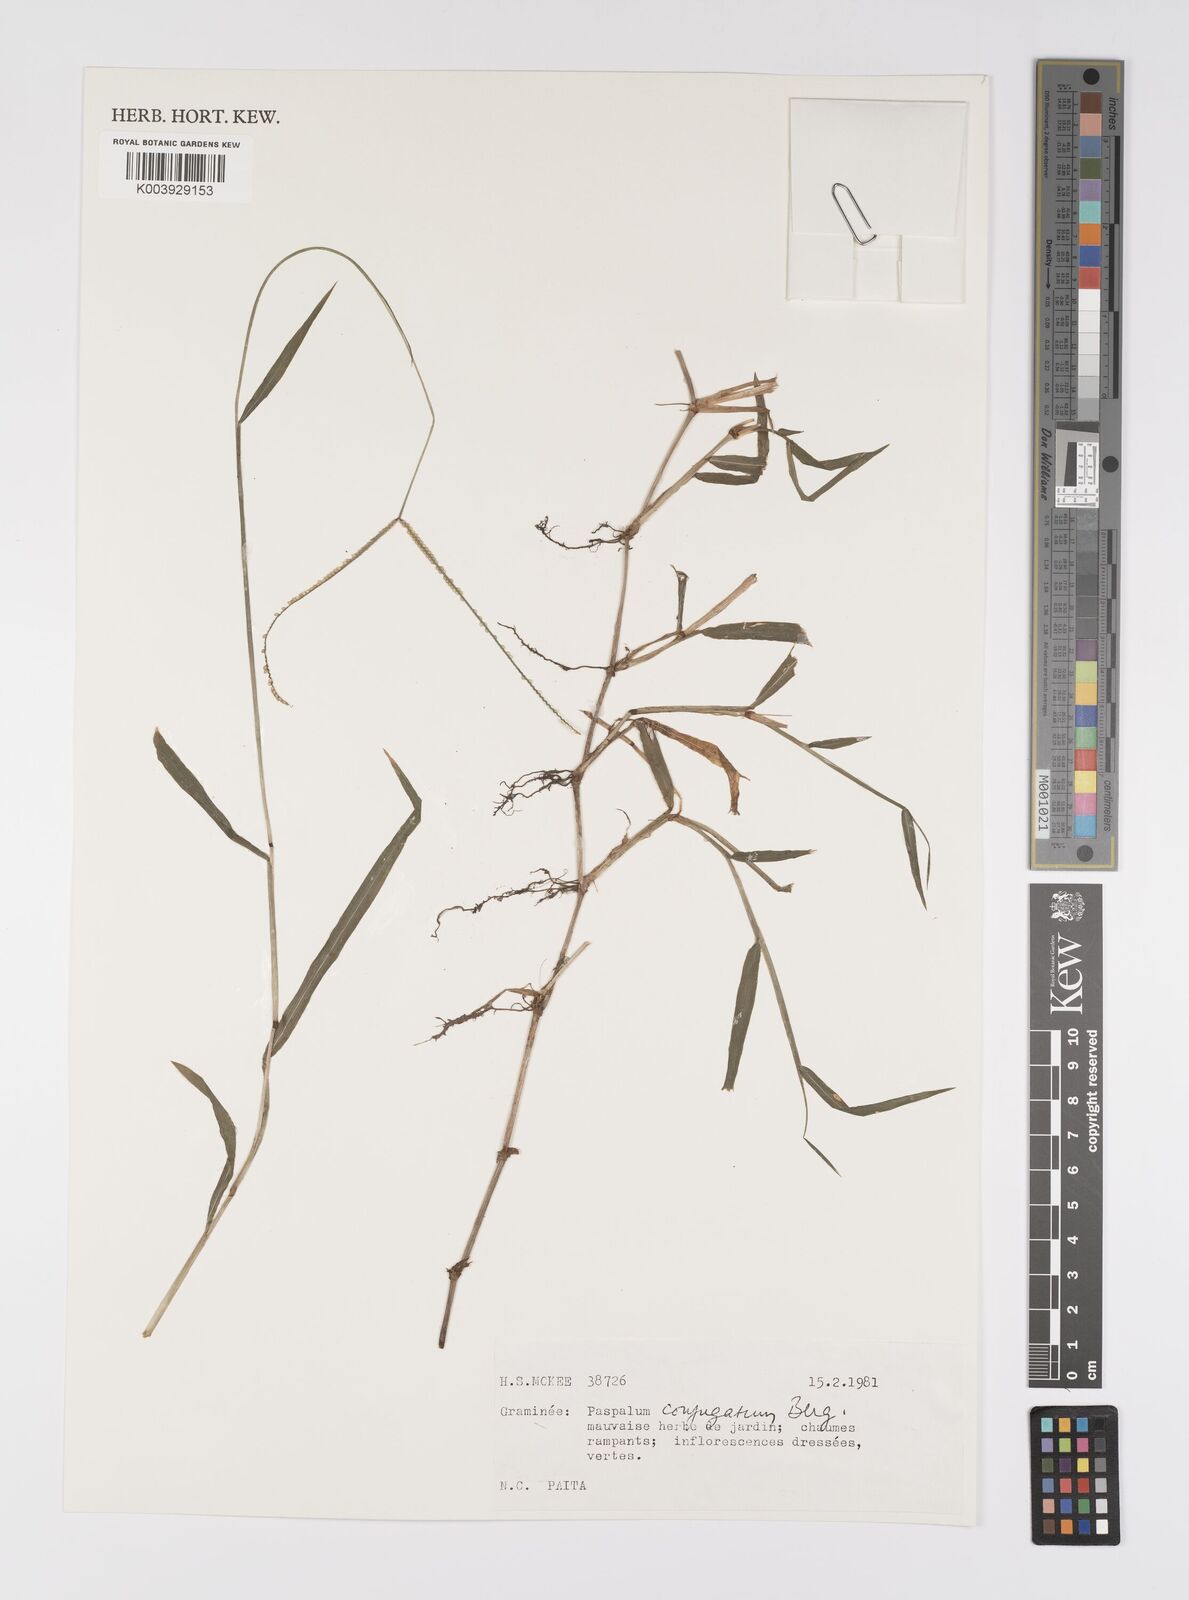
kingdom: Plantae
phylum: Tracheophyta
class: Liliopsida
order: Poales
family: Poaceae
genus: Paspalum
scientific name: Paspalum conjugatum
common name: Hilograss
